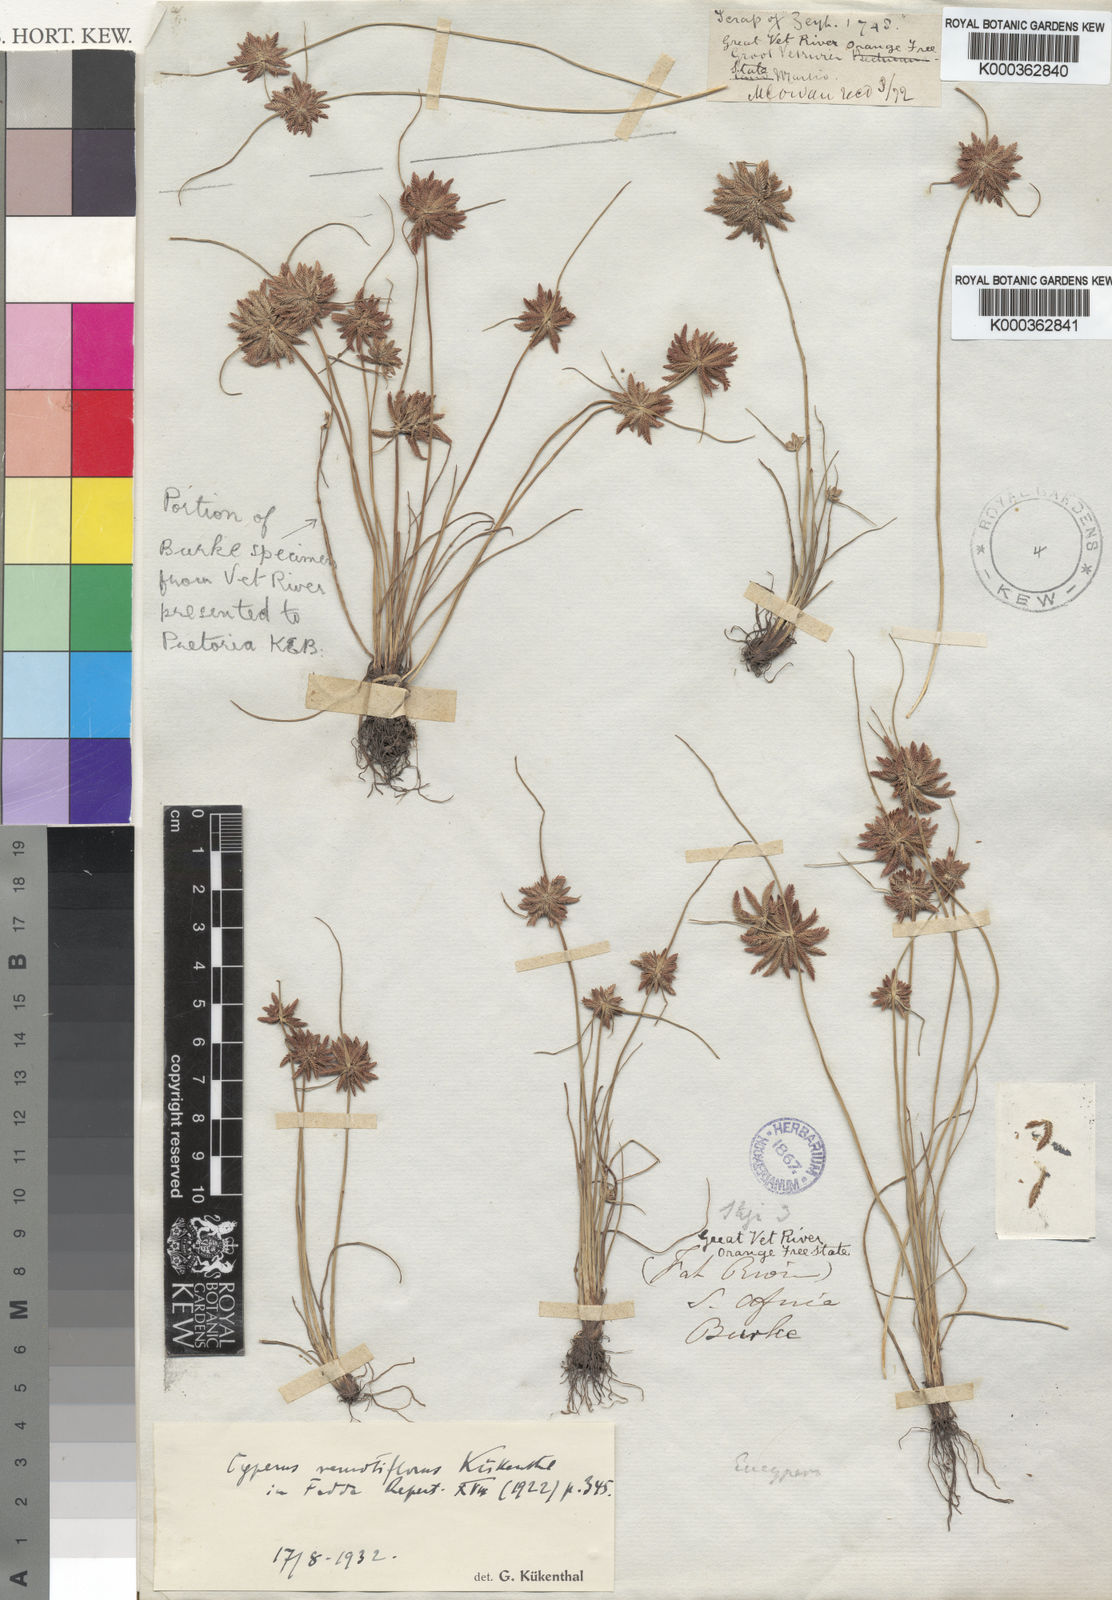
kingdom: Plantae
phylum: Tracheophyta
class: Liliopsida
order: Poales
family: Cyperaceae
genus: Cyperus
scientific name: Cyperus
